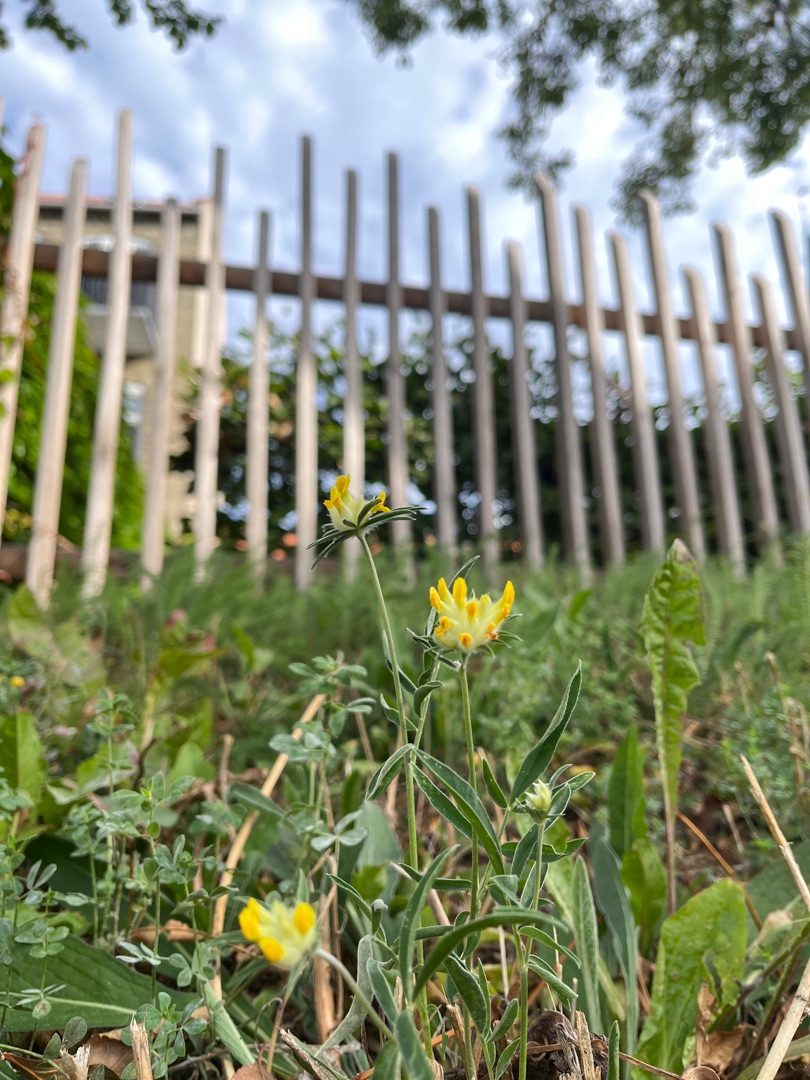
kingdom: Plantae
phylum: Tracheophyta
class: Magnoliopsida
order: Fabales
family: Fabaceae
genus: Anthyllis
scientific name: Anthyllis vulneraria
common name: Rundbælg
